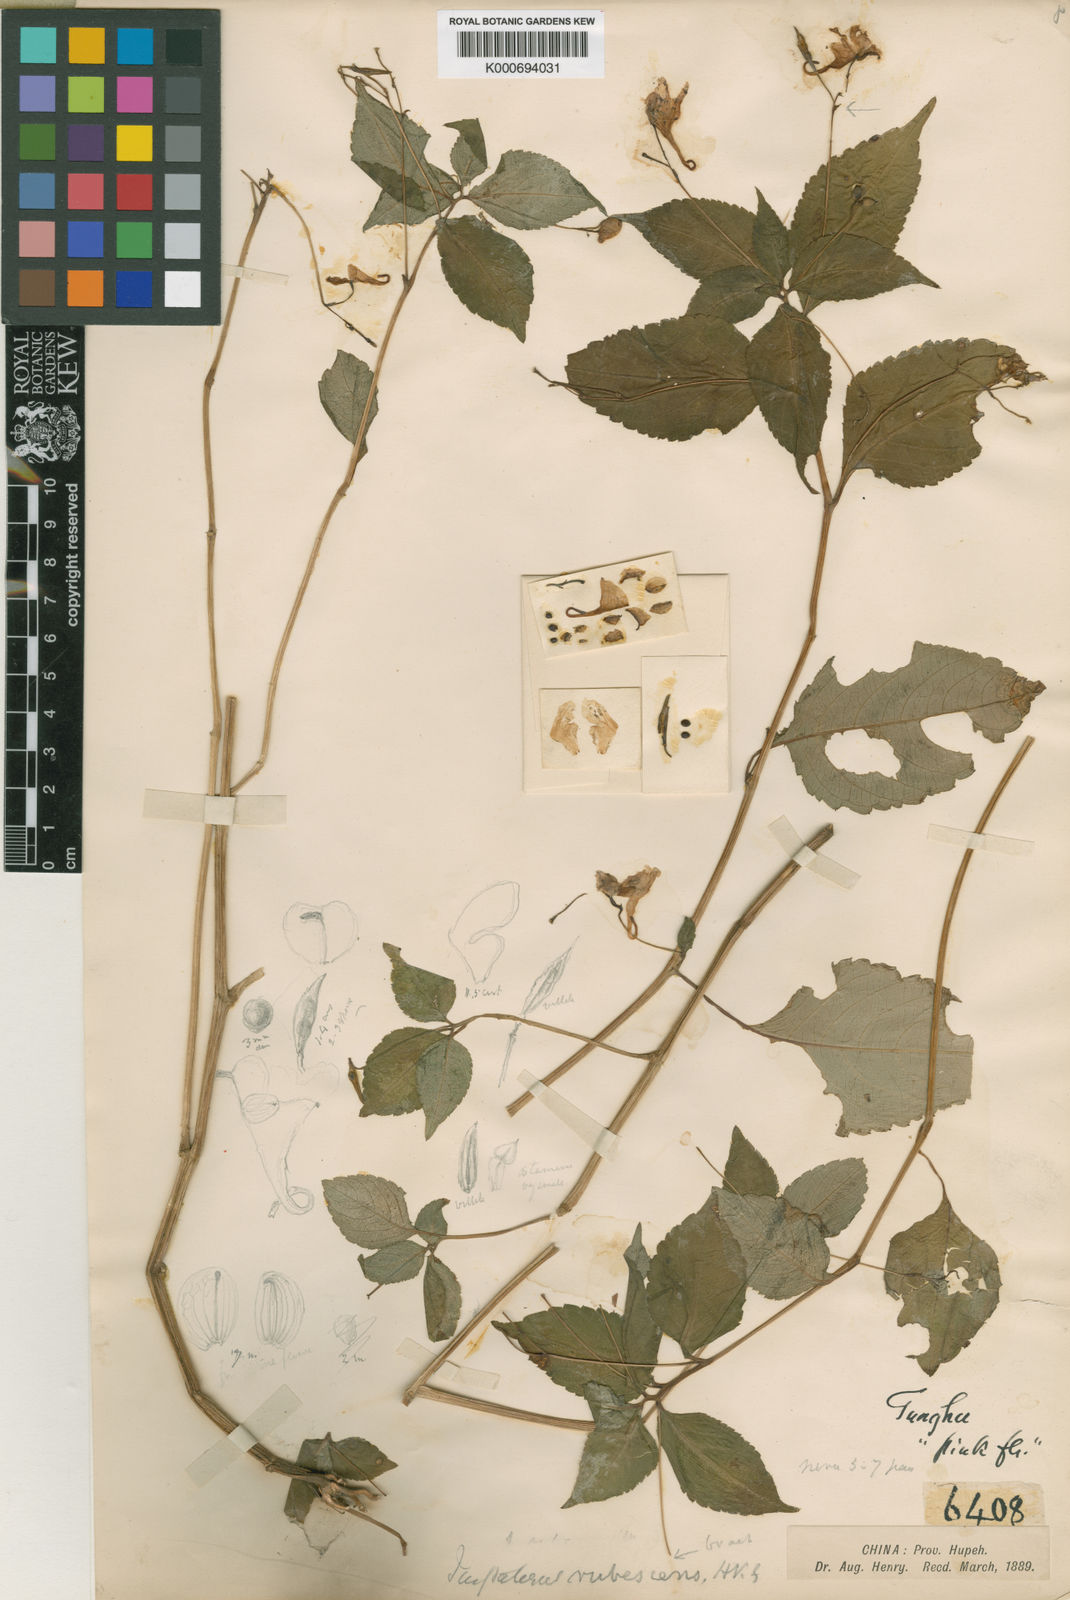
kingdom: Plantae
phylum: Tracheophyta
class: Magnoliopsida
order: Ericales
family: Balsaminaceae
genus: Impatiens
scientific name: Impatiens
